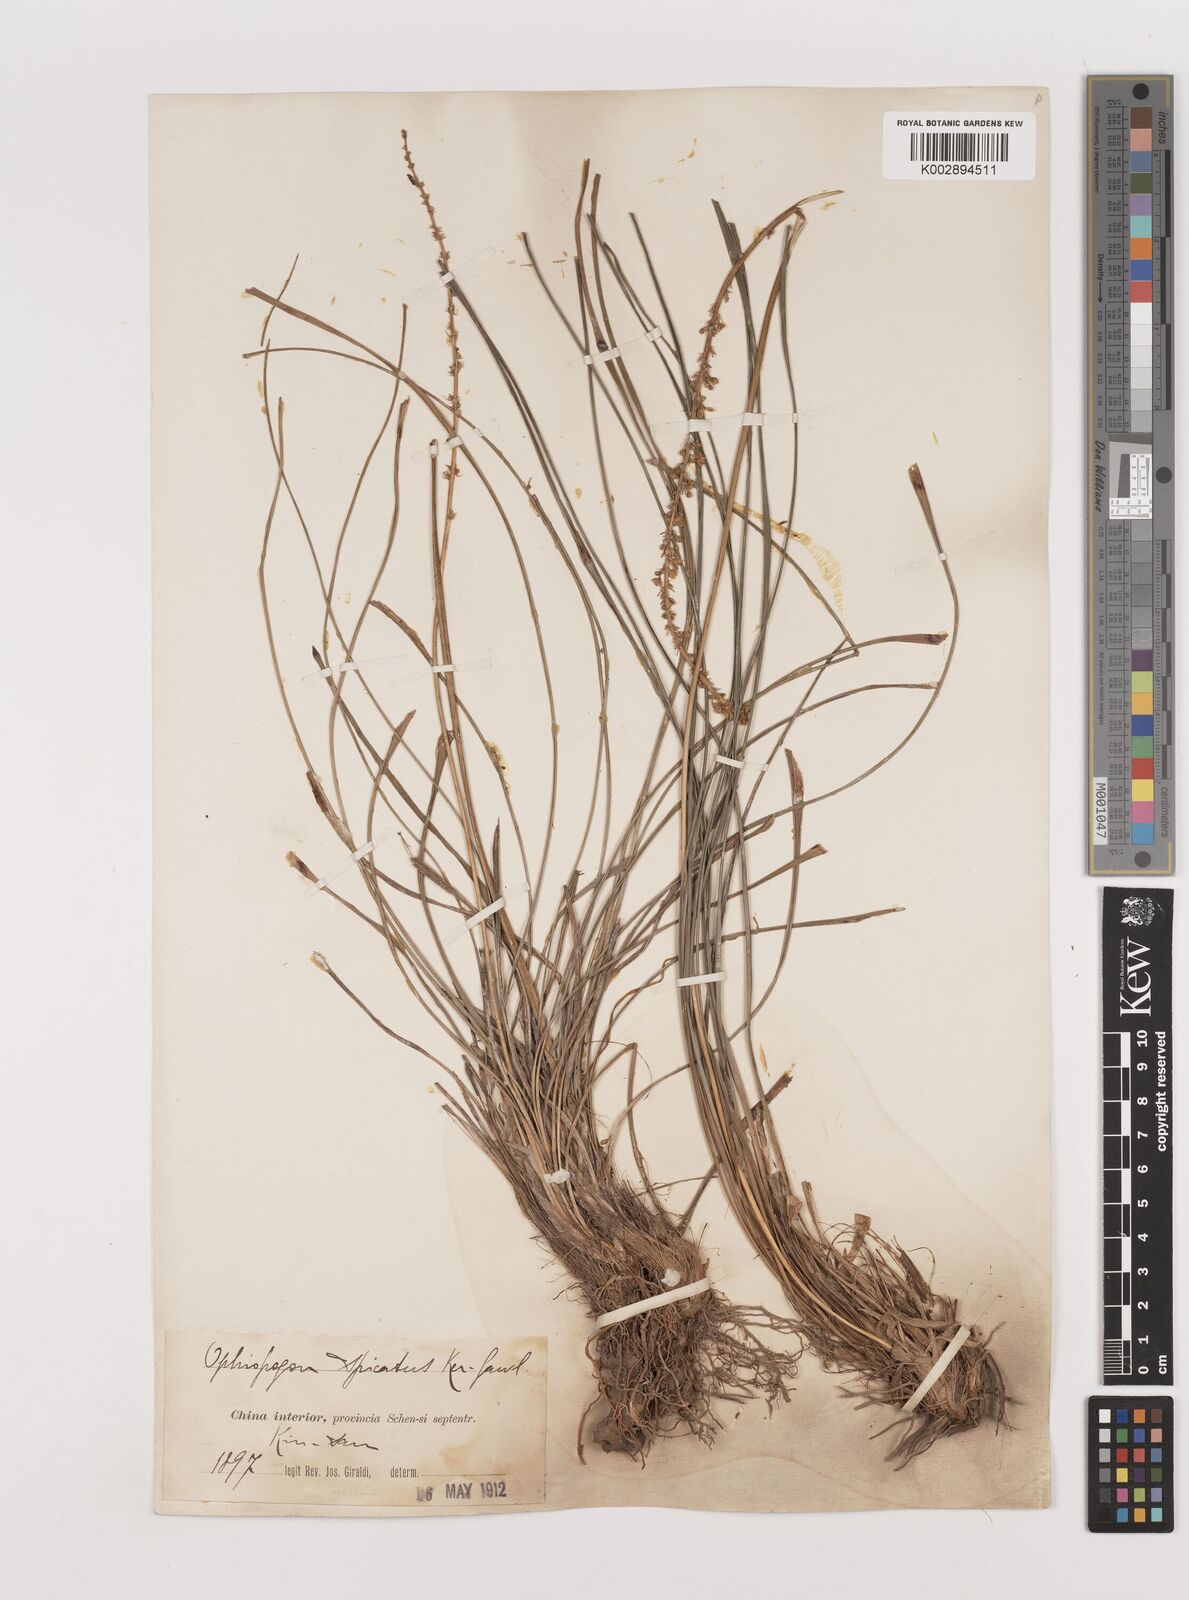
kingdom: Plantae
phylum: Tracheophyta
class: Liliopsida
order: Asparagales
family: Asparagaceae
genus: Liriope
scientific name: Liriope spicata
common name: Creeping liriope
